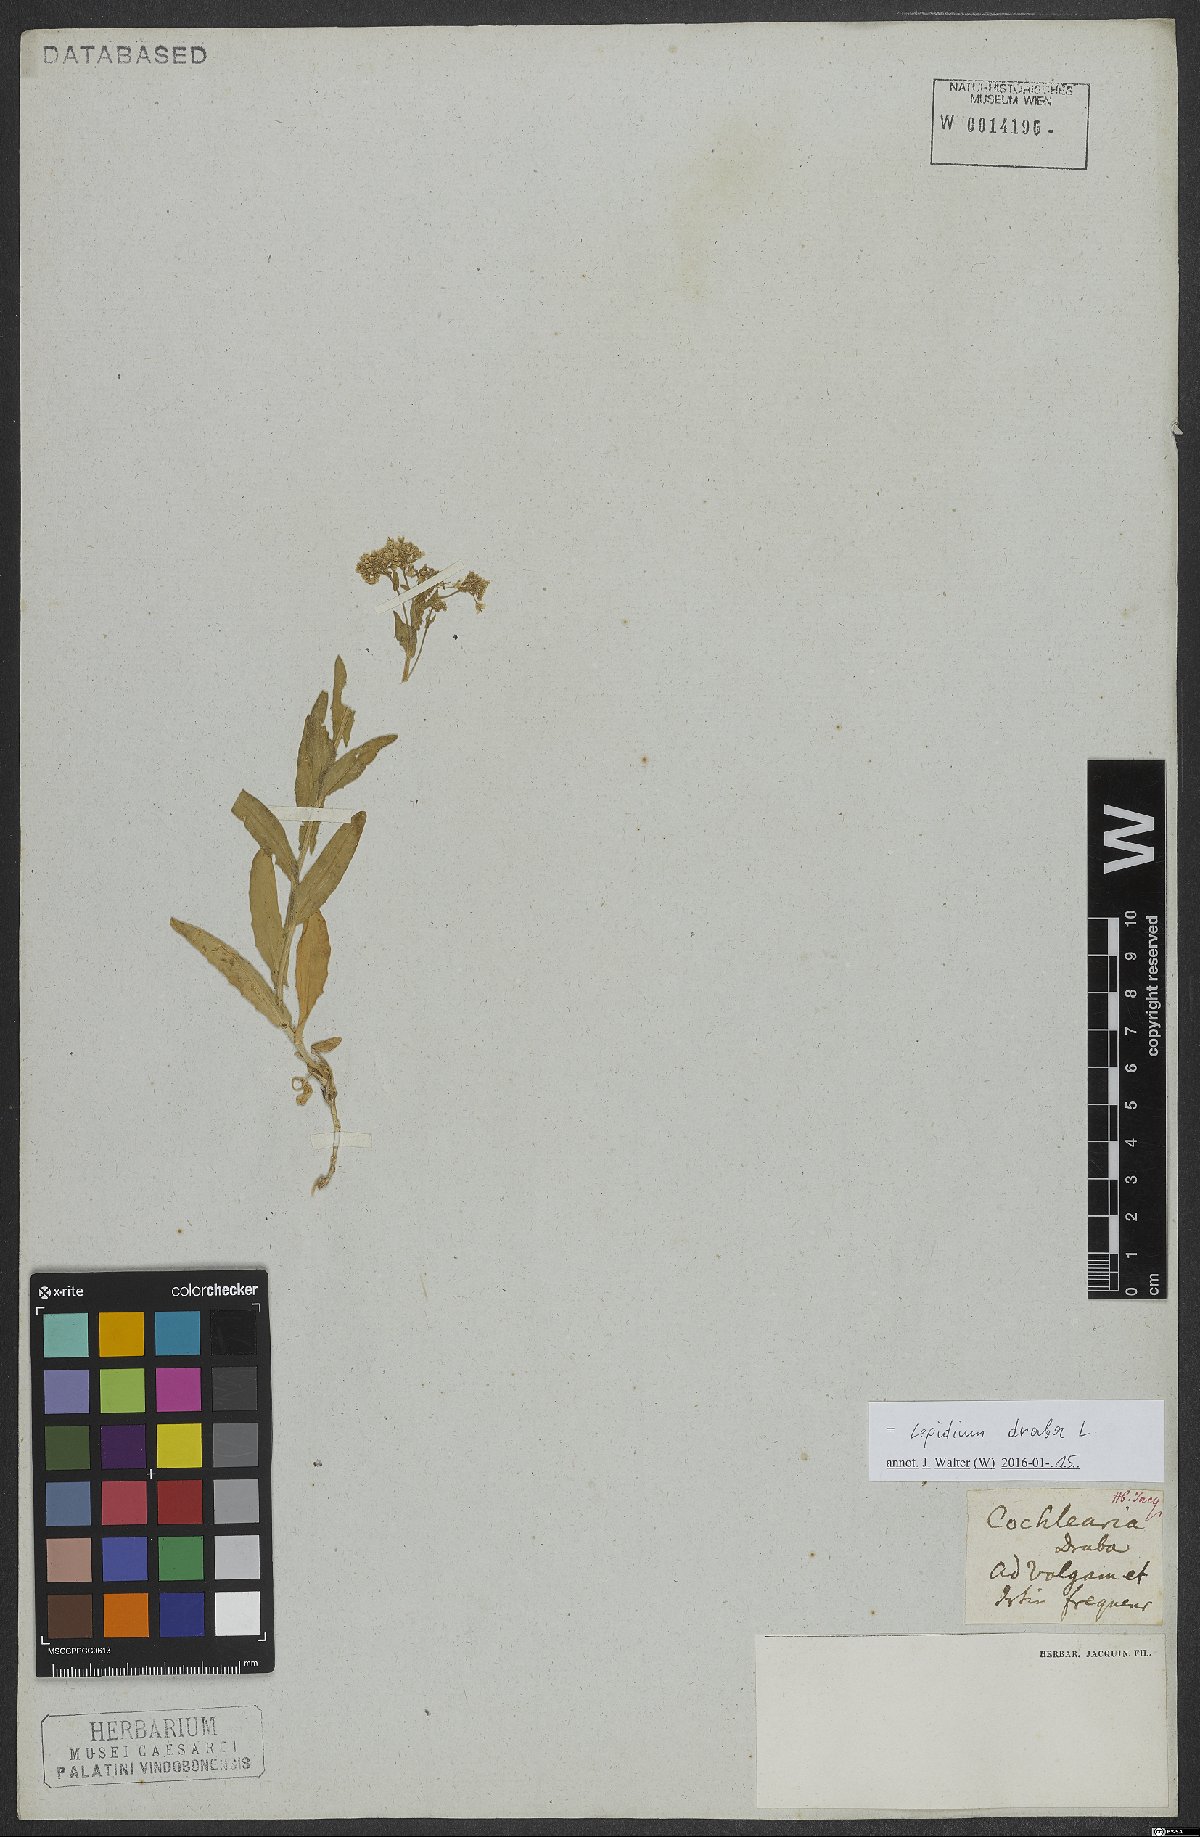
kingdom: Plantae
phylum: Tracheophyta
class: Magnoliopsida
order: Brassicales
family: Brassicaceae
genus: Lepidium
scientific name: Lepidium draba
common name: Hoary cress
